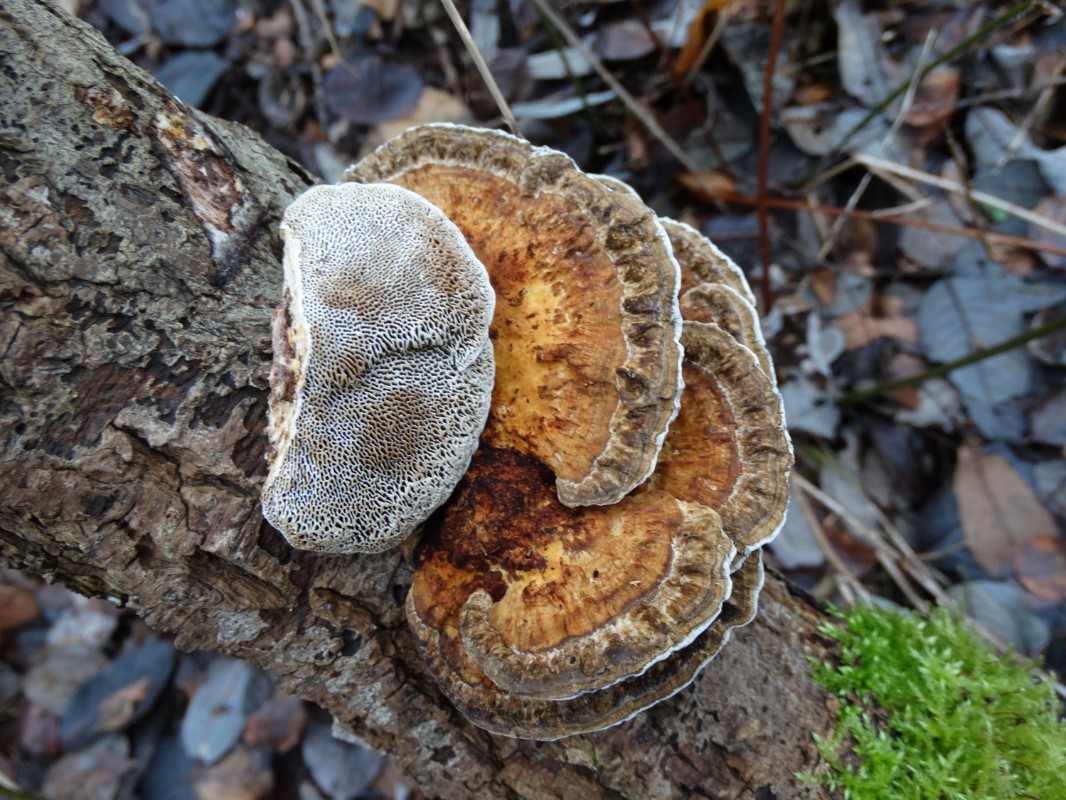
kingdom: Fungi
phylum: Basidiomycota
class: Agaricomycetes
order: Polyporales
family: Polyporaceae
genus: Daedaleopsis
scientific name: Daedaleopsis confragosa
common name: rødmende læderporesvamp
